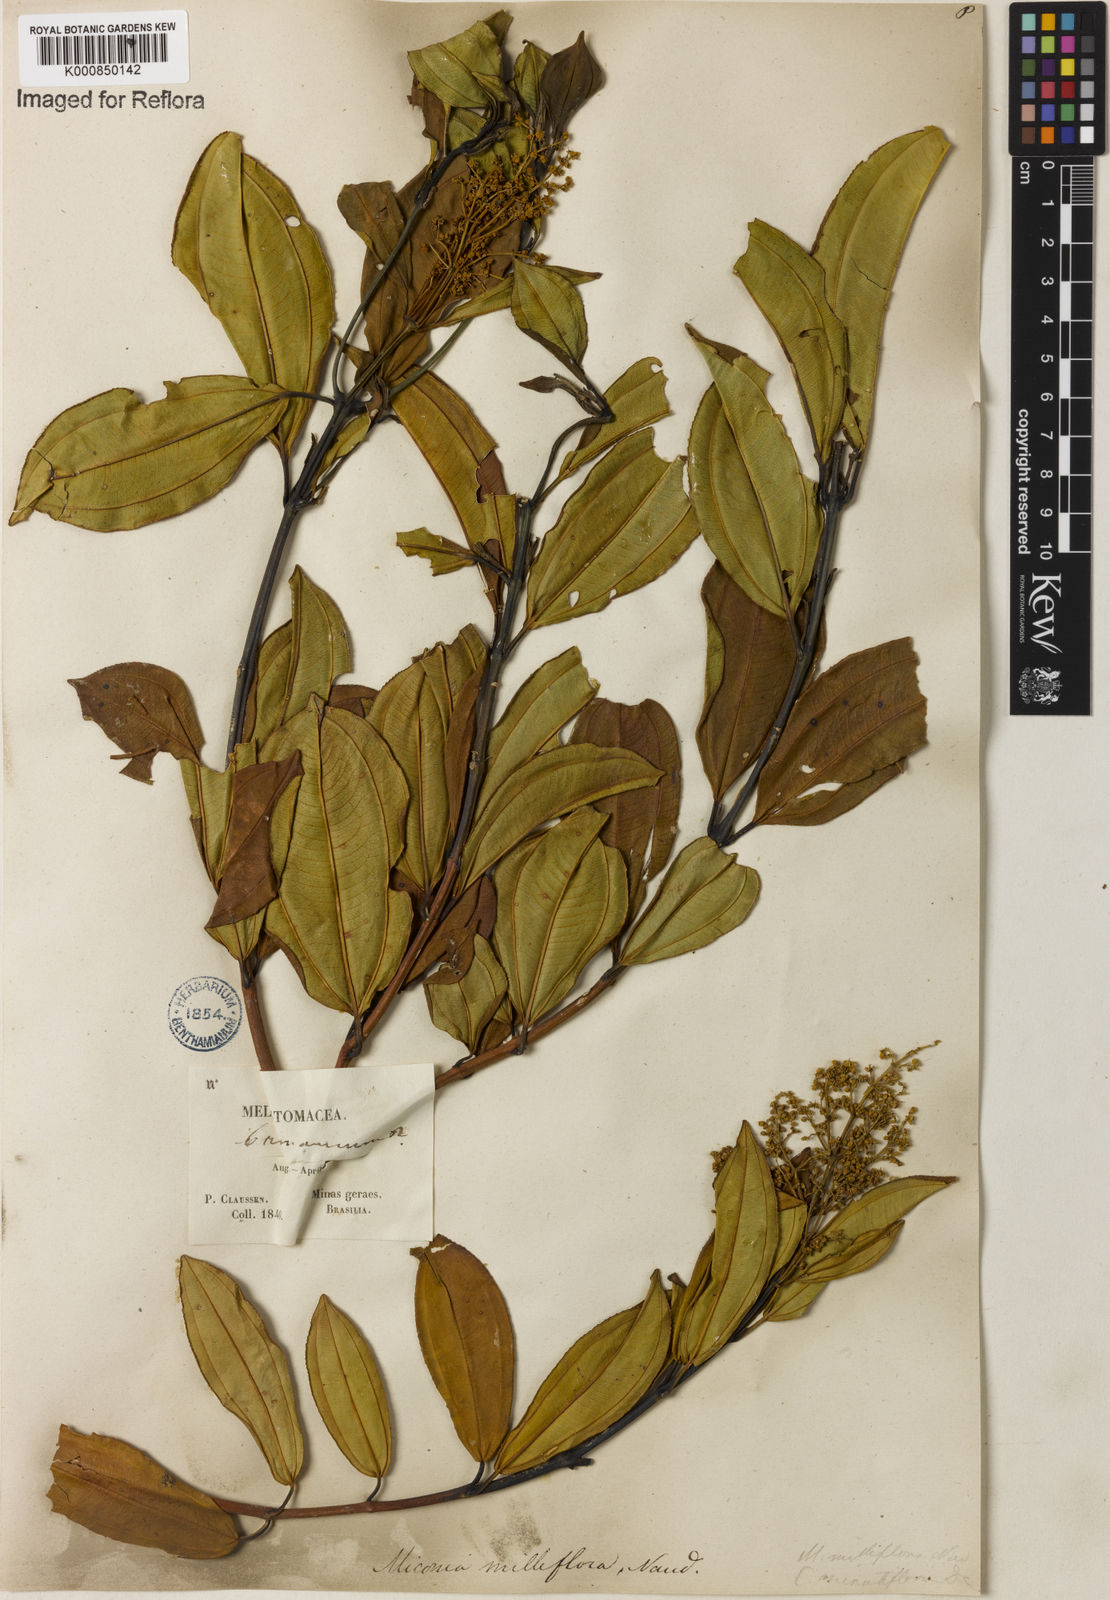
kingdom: Plantae
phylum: Tracheophyta
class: Magnoliopsida
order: Myrtales
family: Melastomataceae
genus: Miconia
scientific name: Miconia
